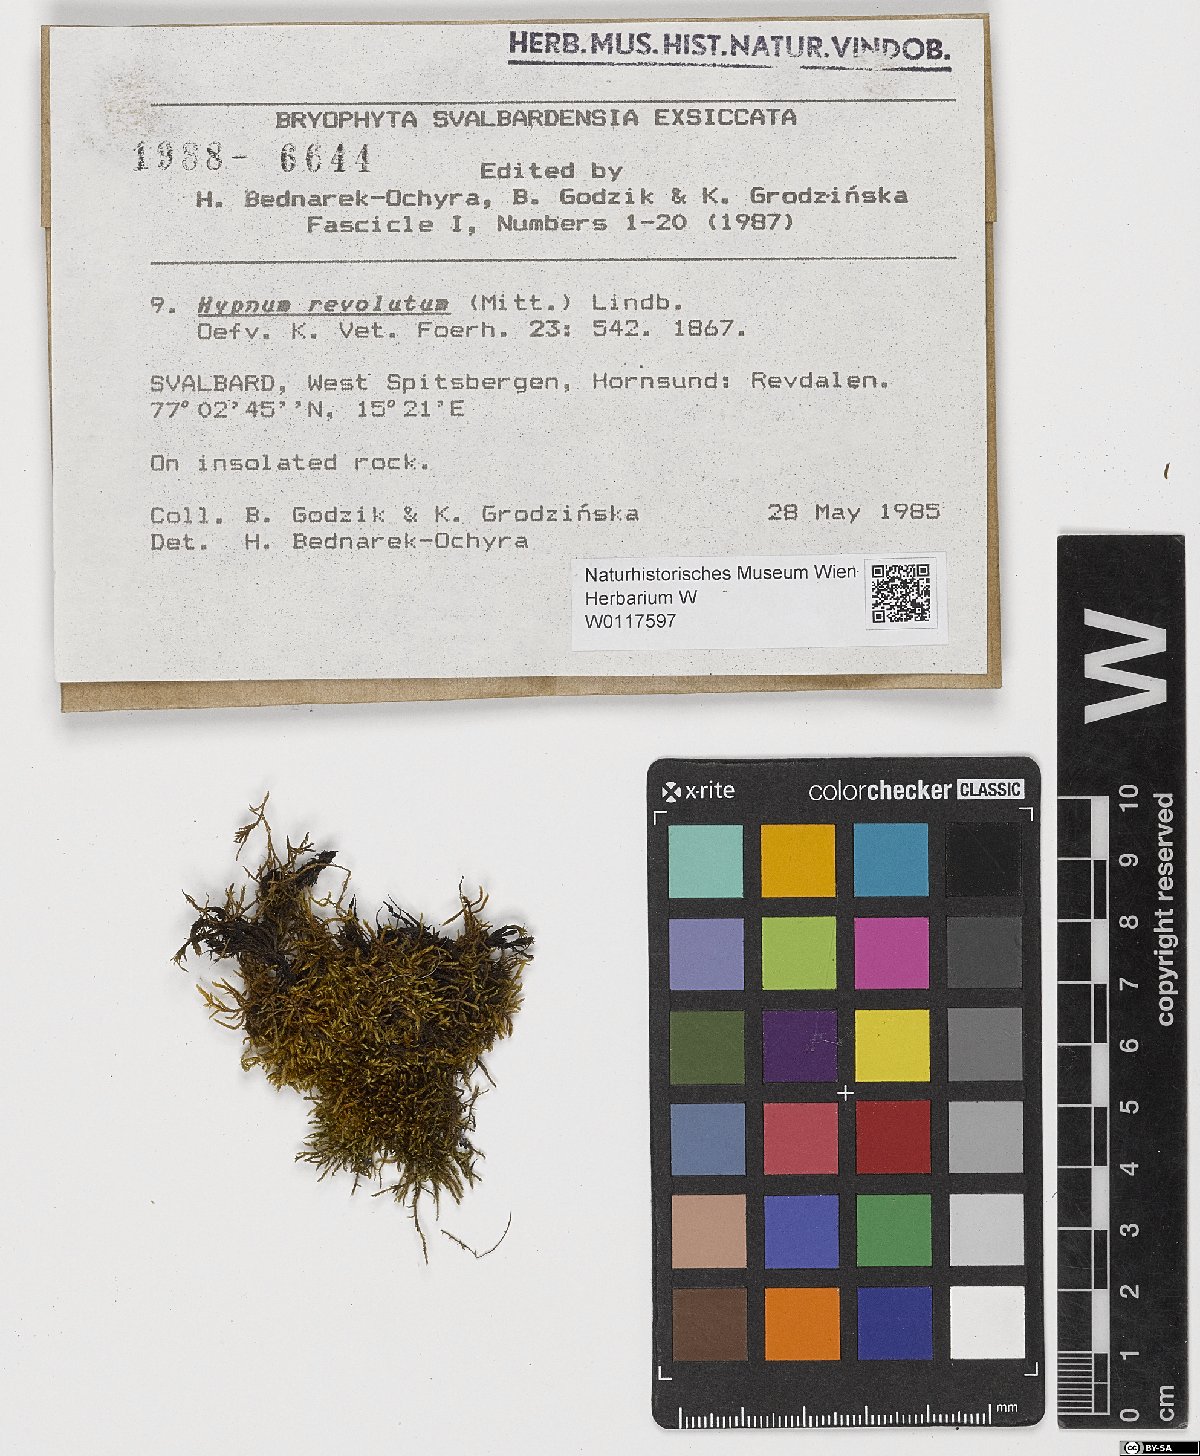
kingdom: Plantae
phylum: Bryophyta
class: Bryopsida
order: Hypnales
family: Pylaisiaceae
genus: Roaldia
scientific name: Roaldia revoluta
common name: Revolute plait-moss
